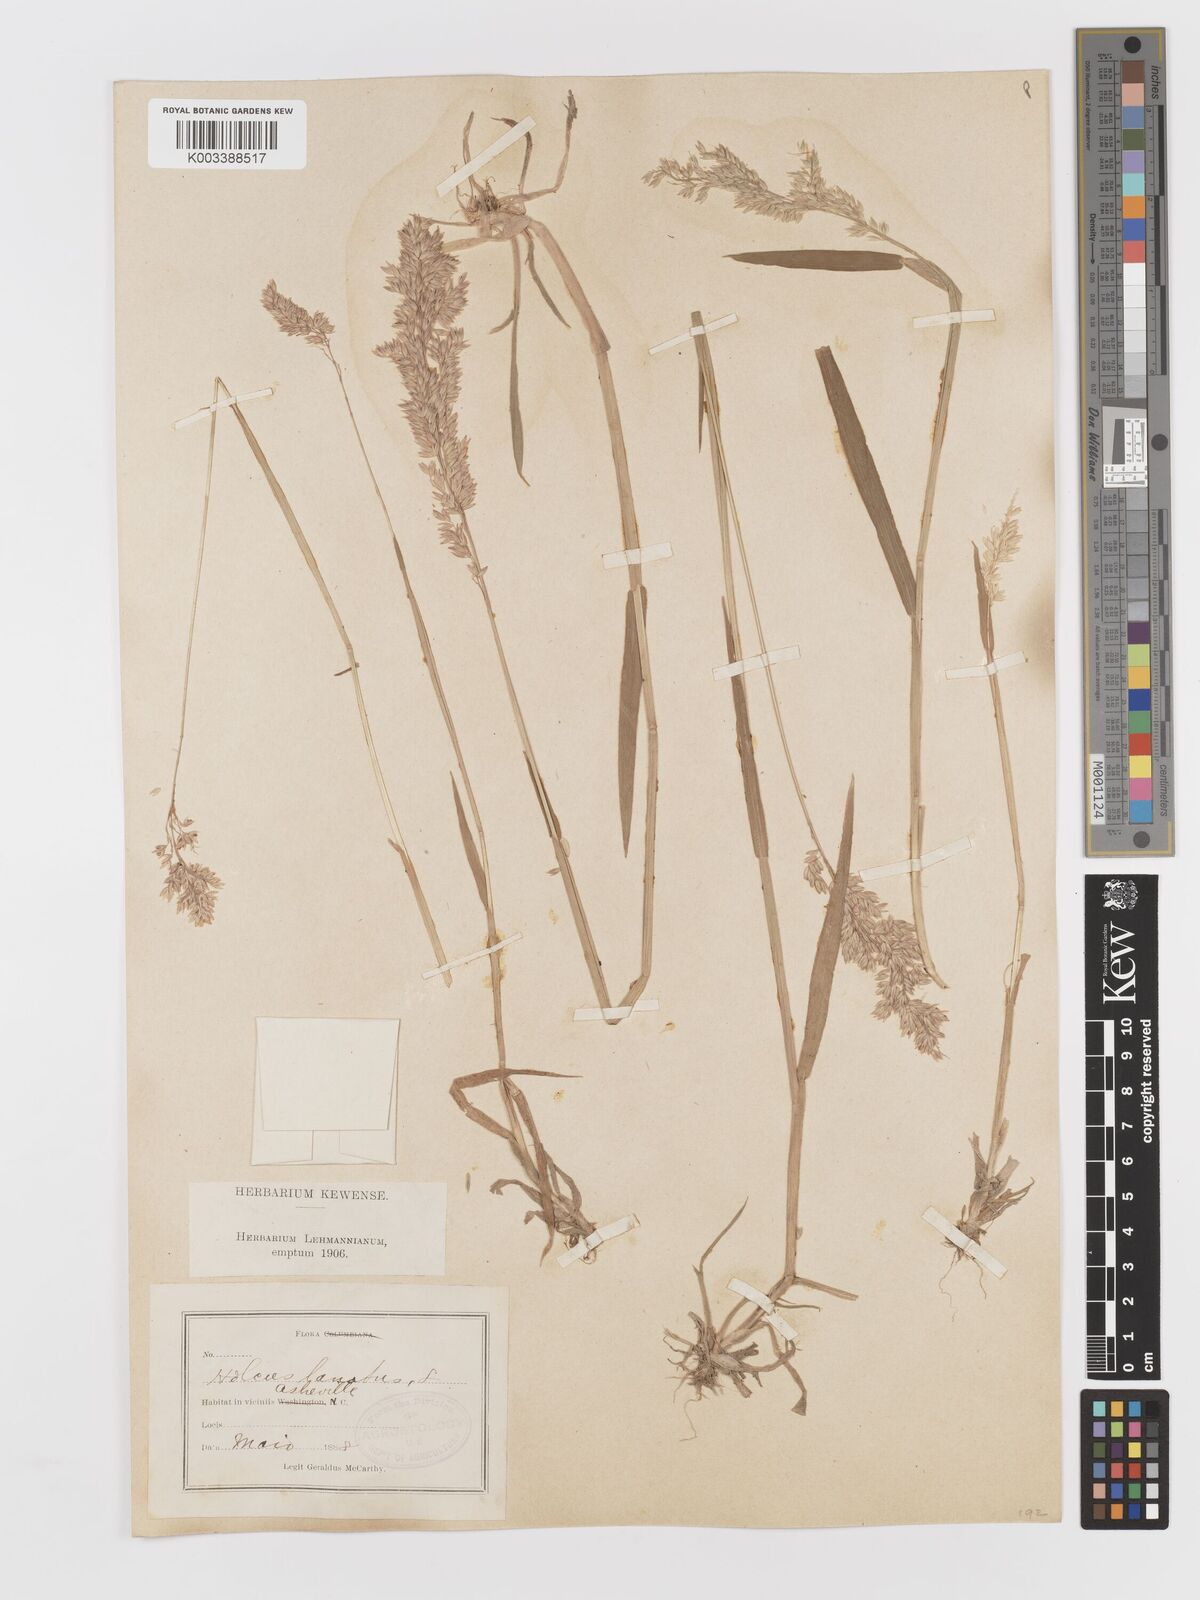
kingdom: Plantae
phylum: Tracheophyta
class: Liliopsida
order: Poales
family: Poaceae
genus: Holcus
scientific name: Holcus lanatus
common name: Yorkshire-fog
